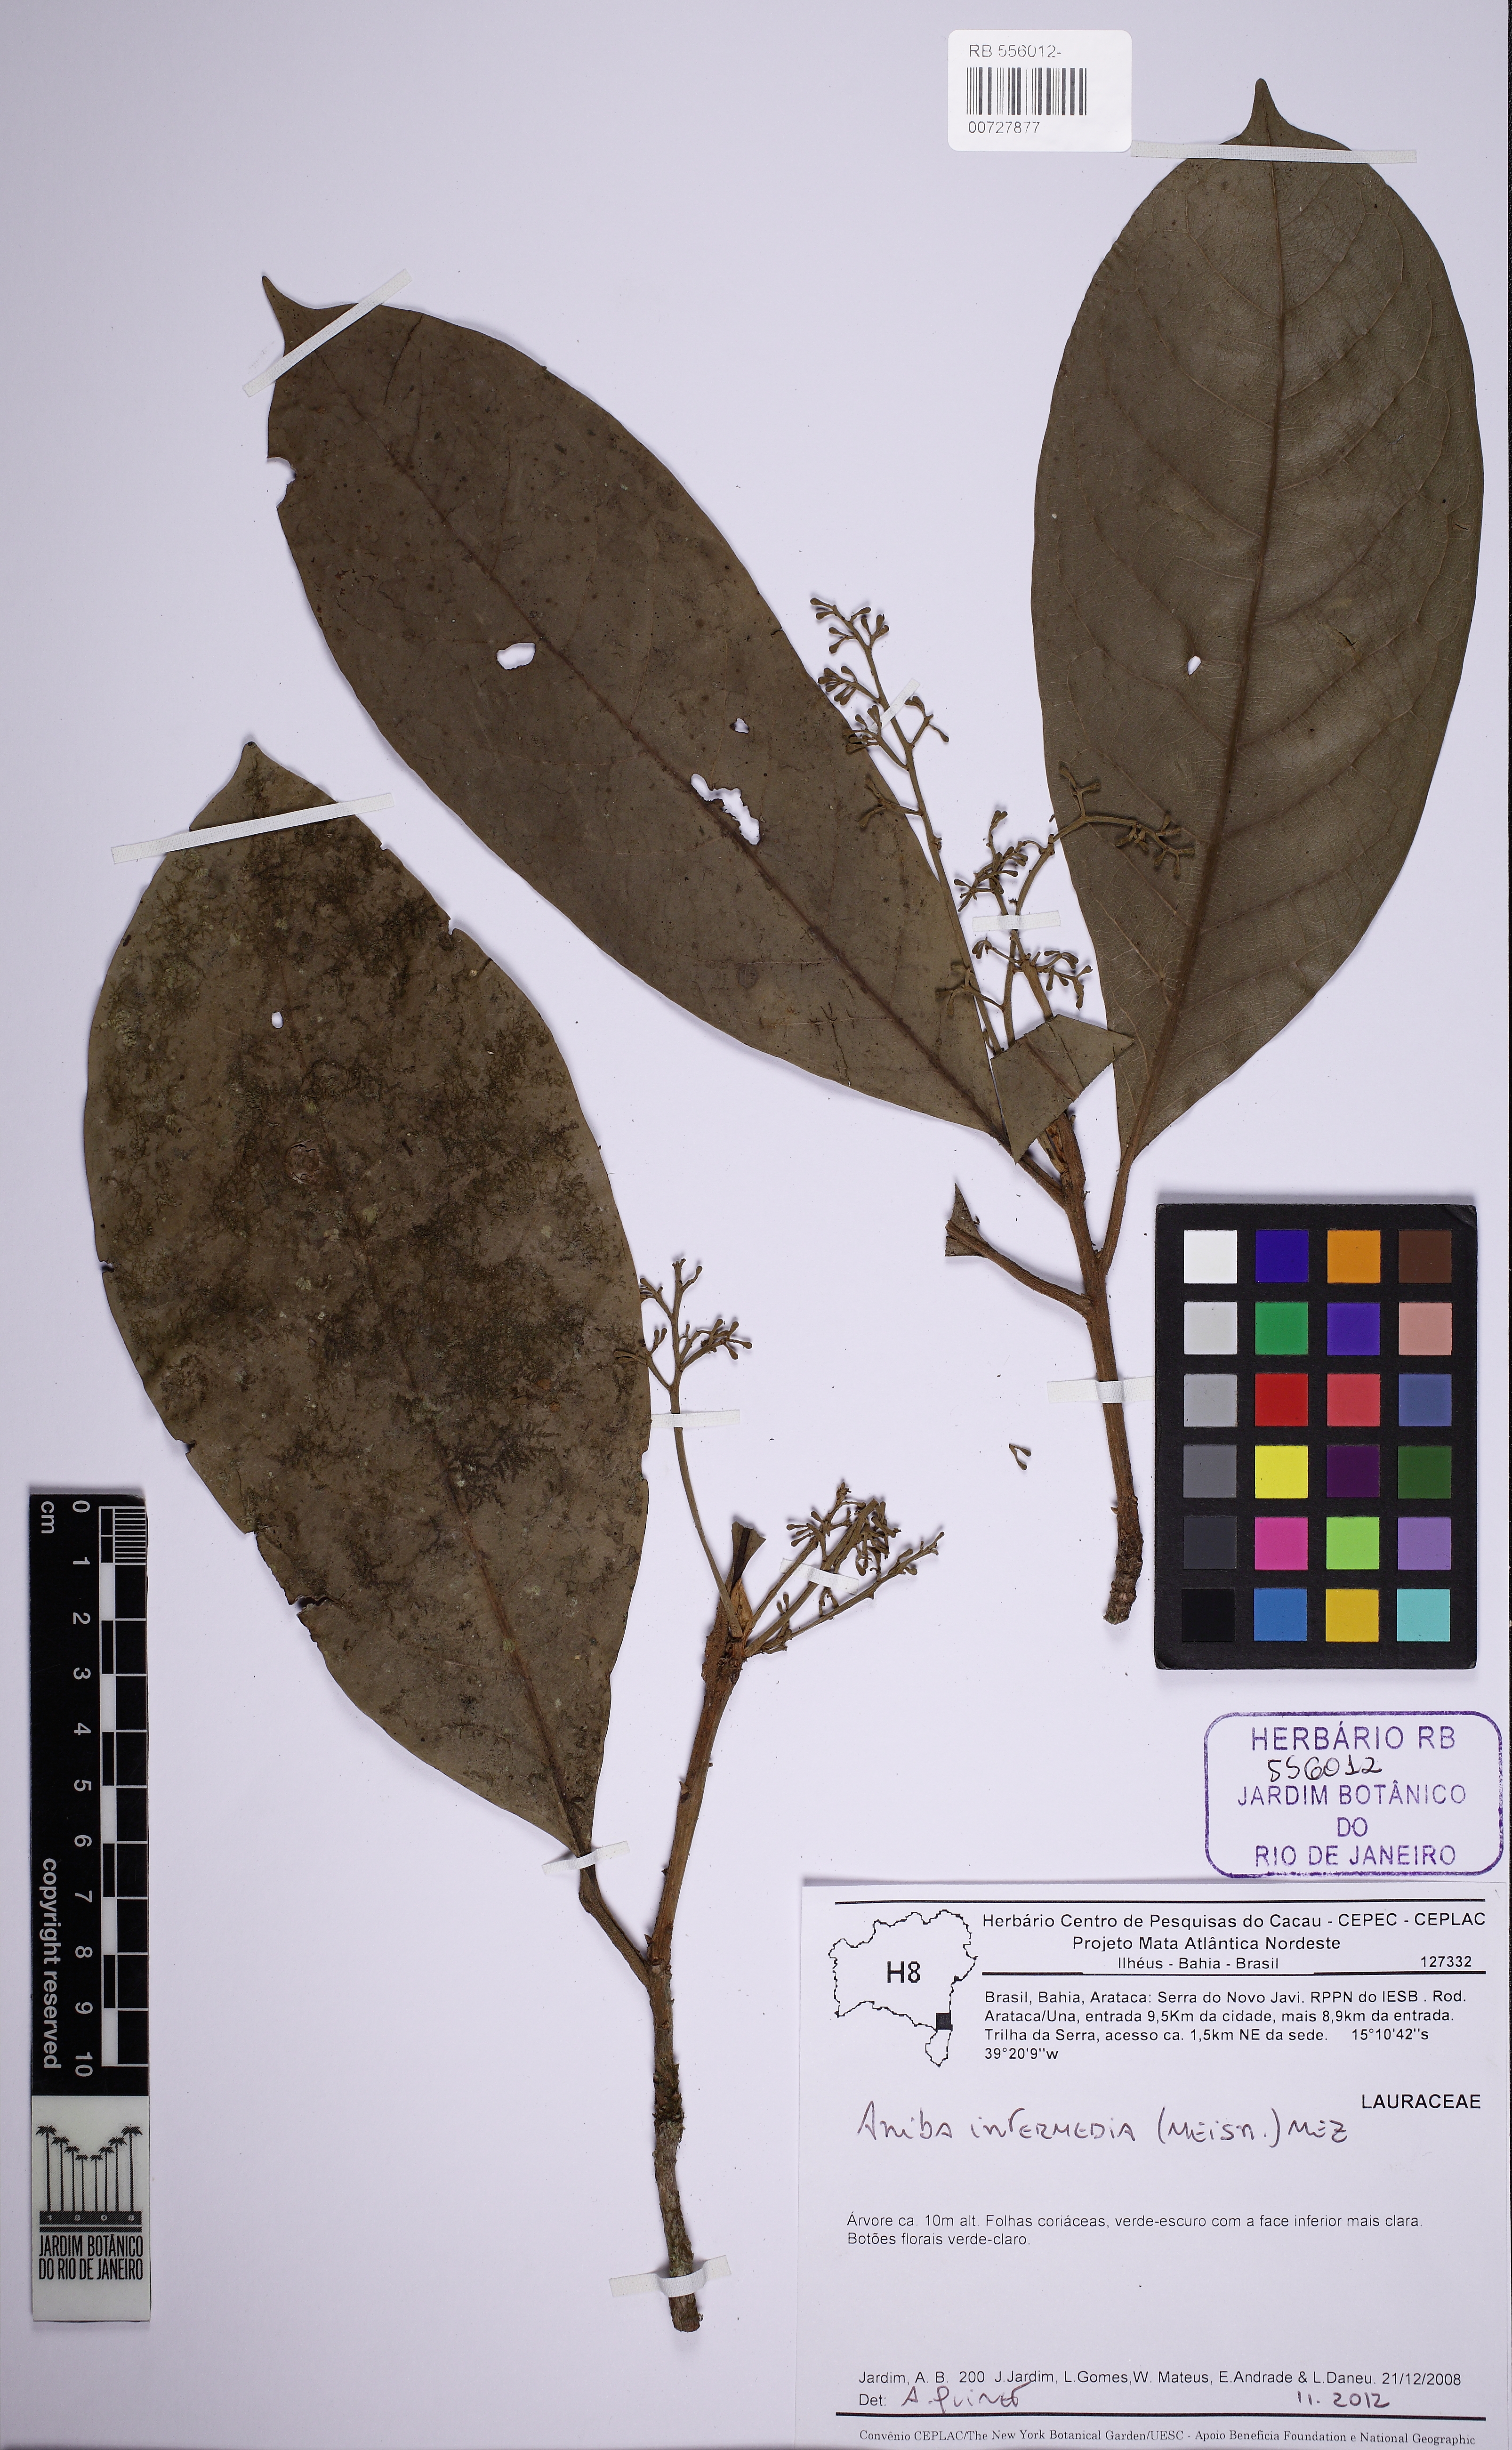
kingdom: Plantae
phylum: Tracheophyta
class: Magnoliopsida
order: Laurales
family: Lauraceae
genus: Aniba
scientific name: Aniba intermedia
